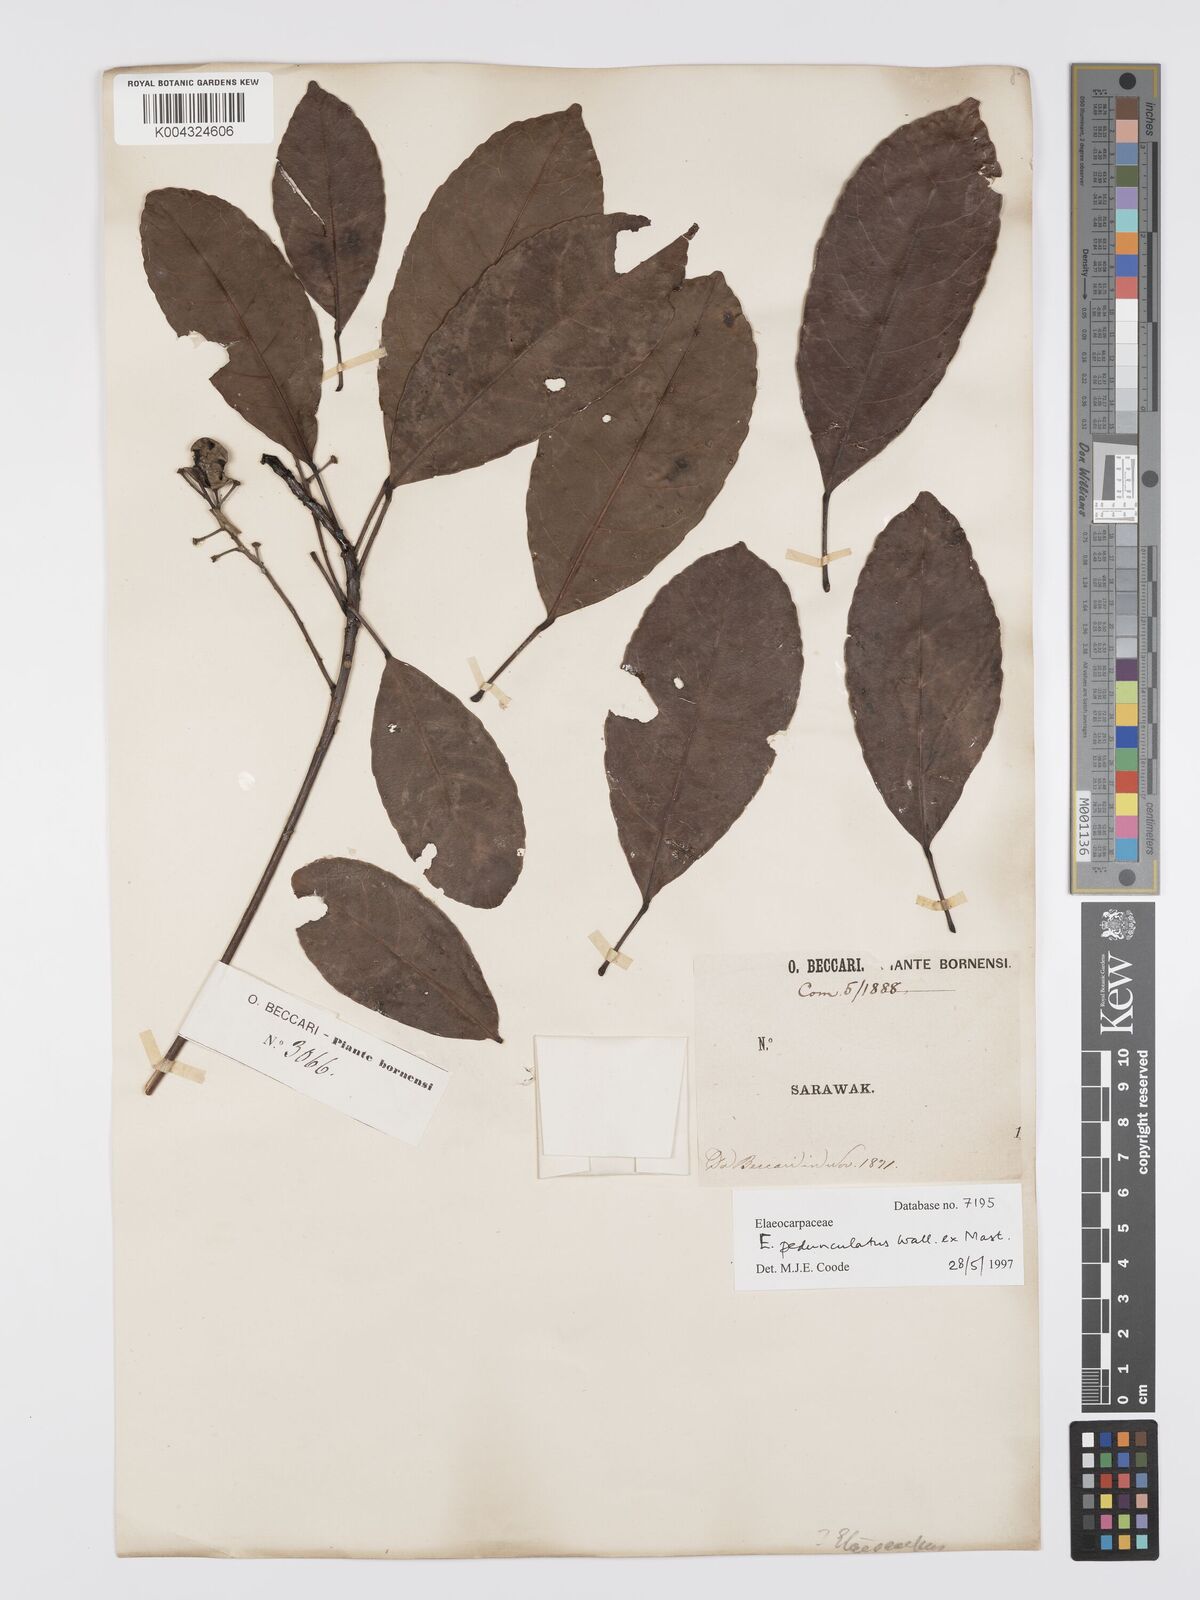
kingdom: Plantae
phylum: Tracheophyta
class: Magnoliopsida
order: Oxalidales
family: Elaeocarpaceae
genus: Elaeocarpus
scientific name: Elaeocarpus pedunculatus
